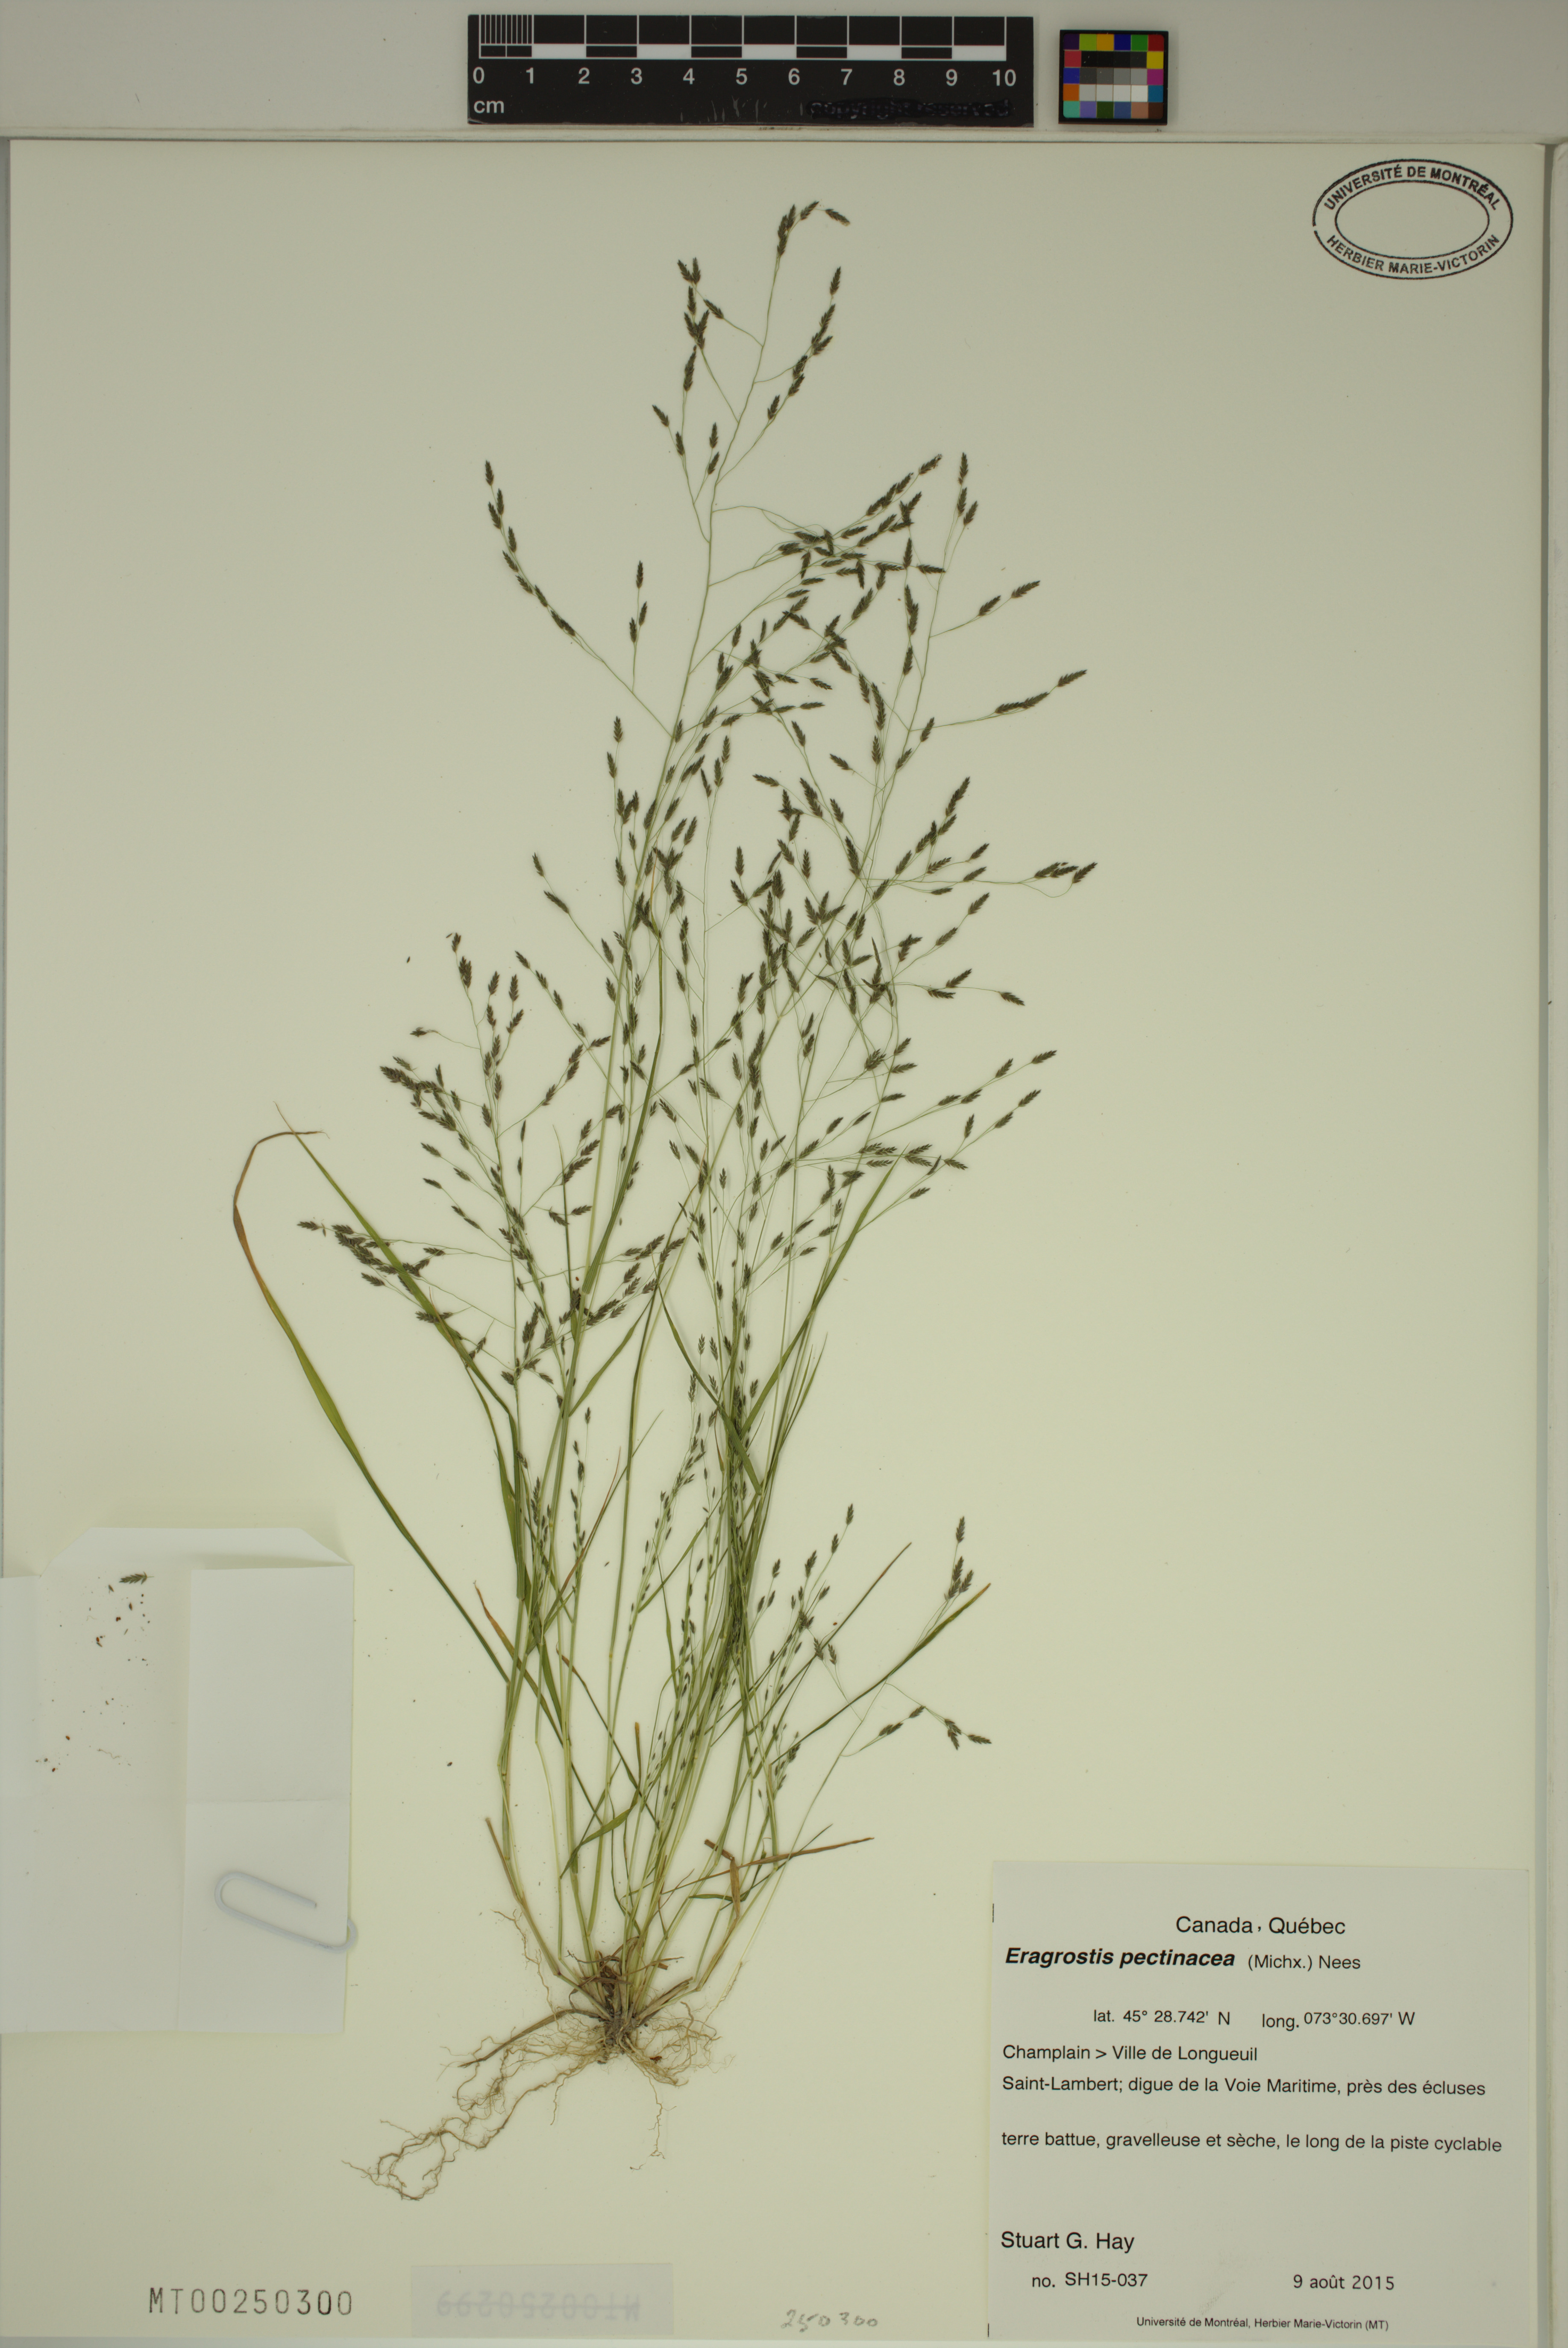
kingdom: Plantae
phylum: Tracheophyta
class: Liliopsida
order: Poales
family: Poaceae
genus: Eragrostis
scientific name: Eragrostis pectinacea
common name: Tufted lovegrass
